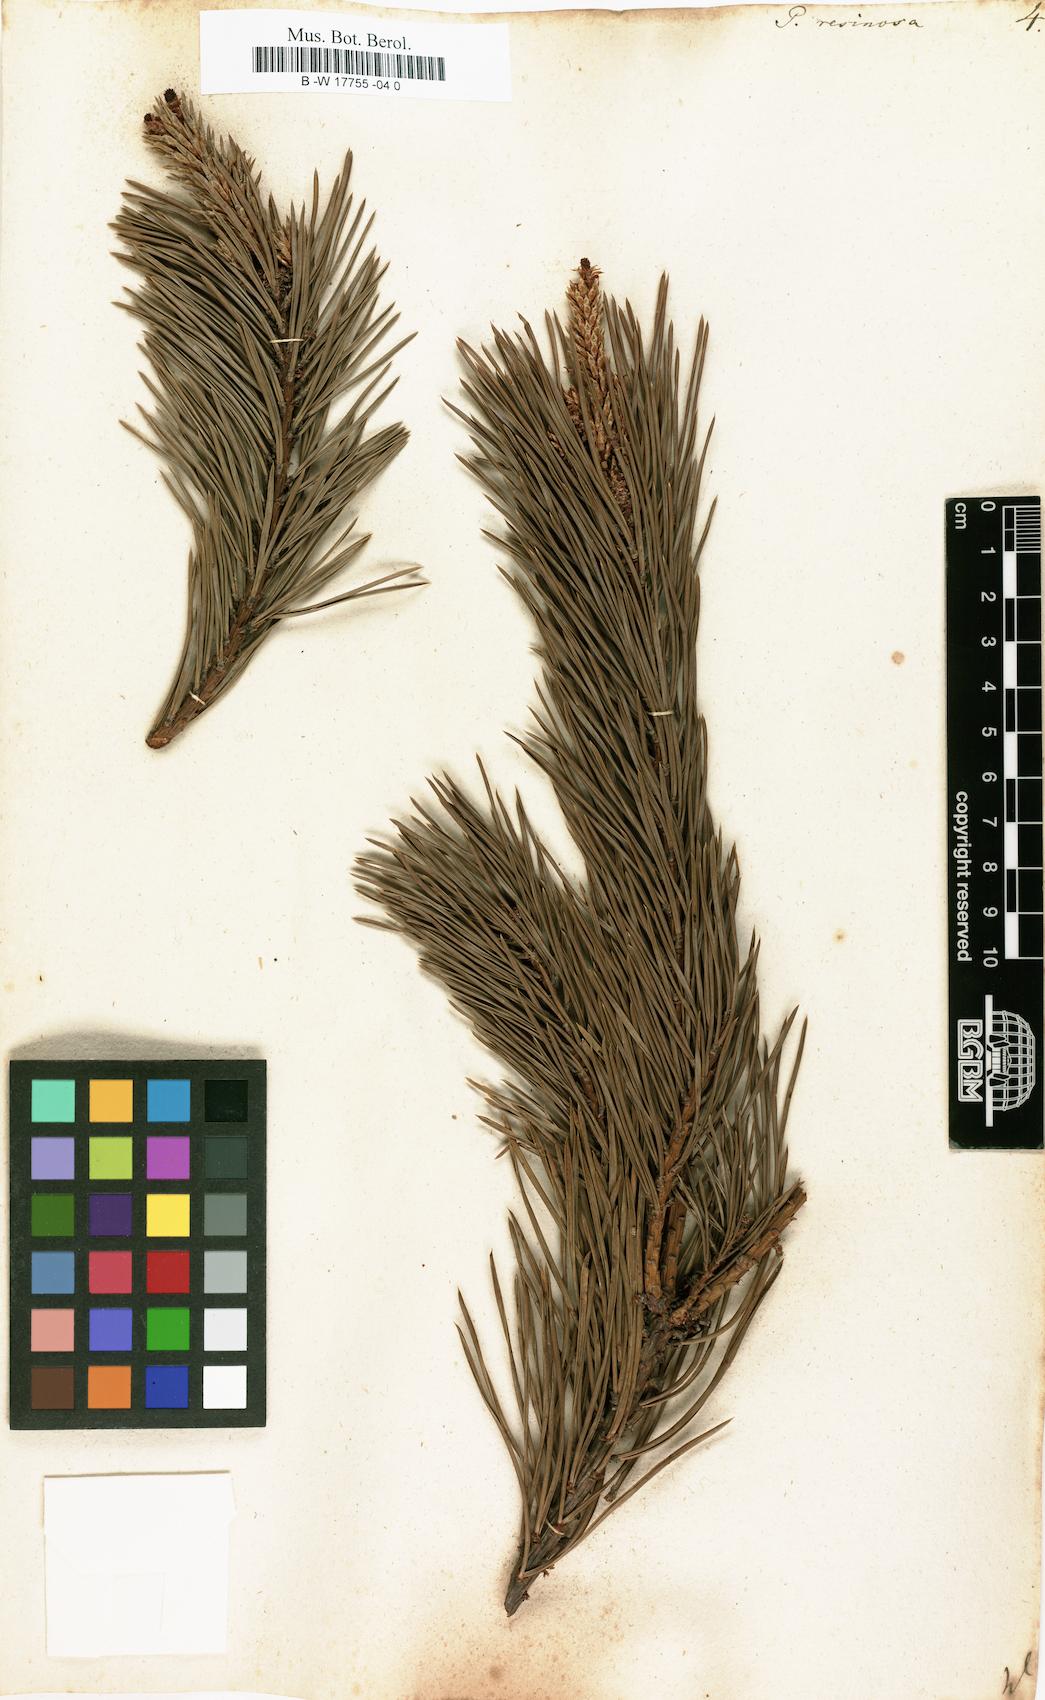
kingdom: Plantae
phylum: Tracheophyta
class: Pinopsida
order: Pinales
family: Pinaceae
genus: Pinus
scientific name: Pinus resinosa
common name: Norway pine
